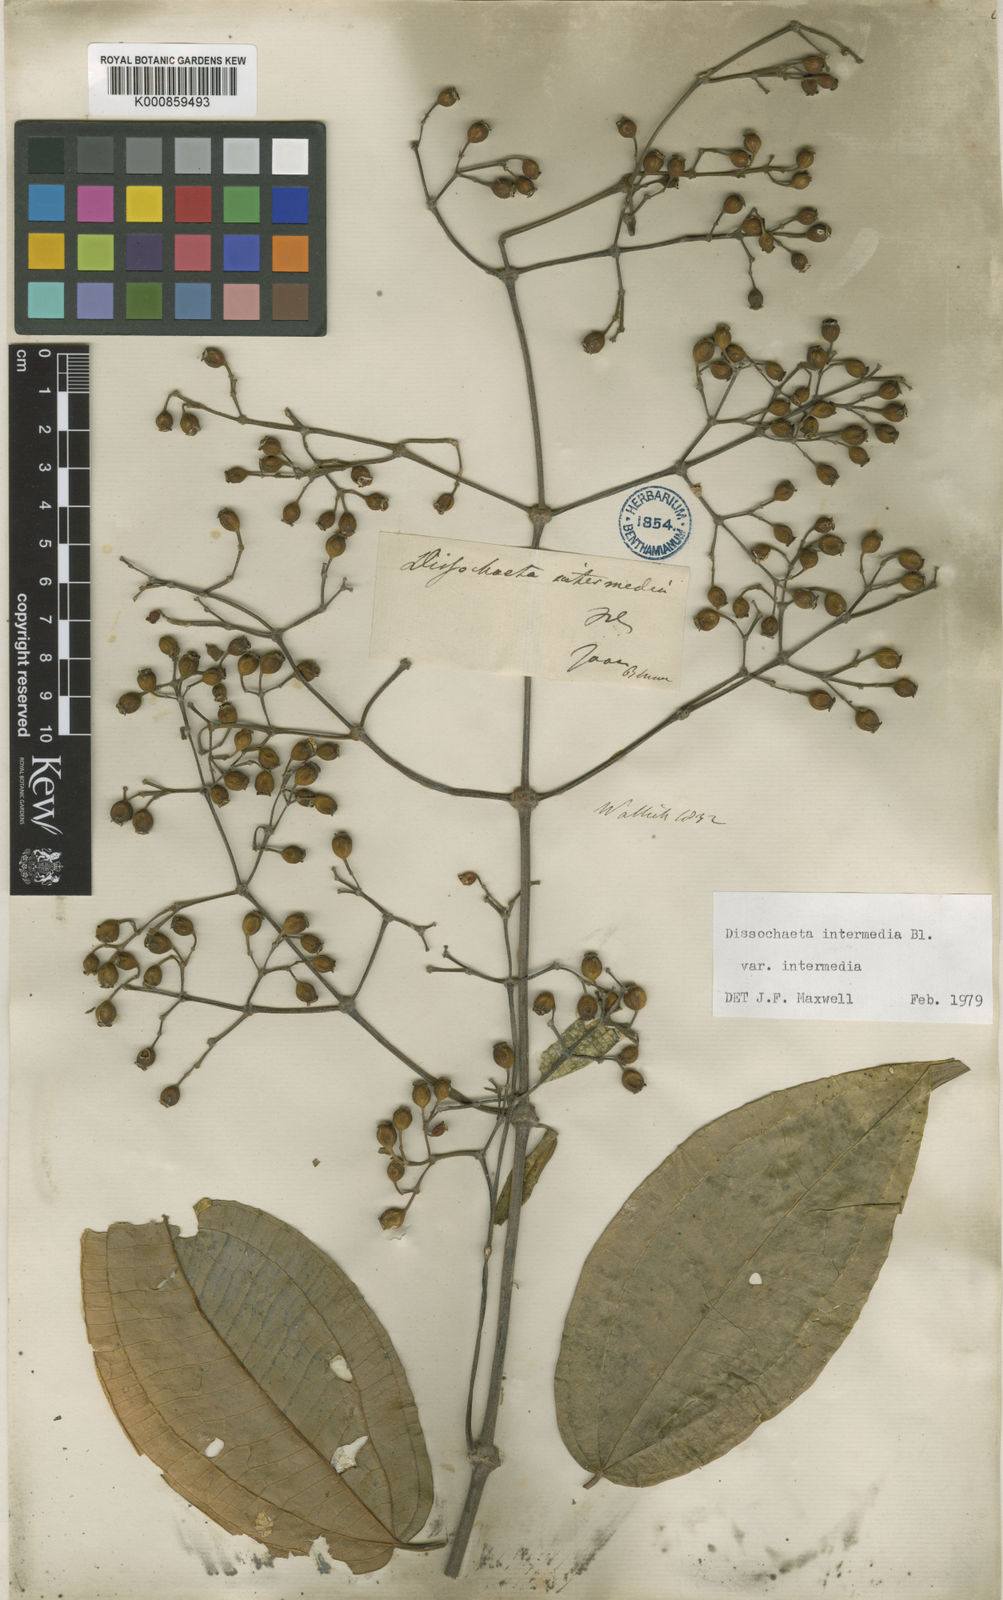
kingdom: Plantae
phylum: Tracheophyta
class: Magnoliopsida
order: Myrtales
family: Melastomataceae
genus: Dissochaeta
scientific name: Dissochaeta intermedia
